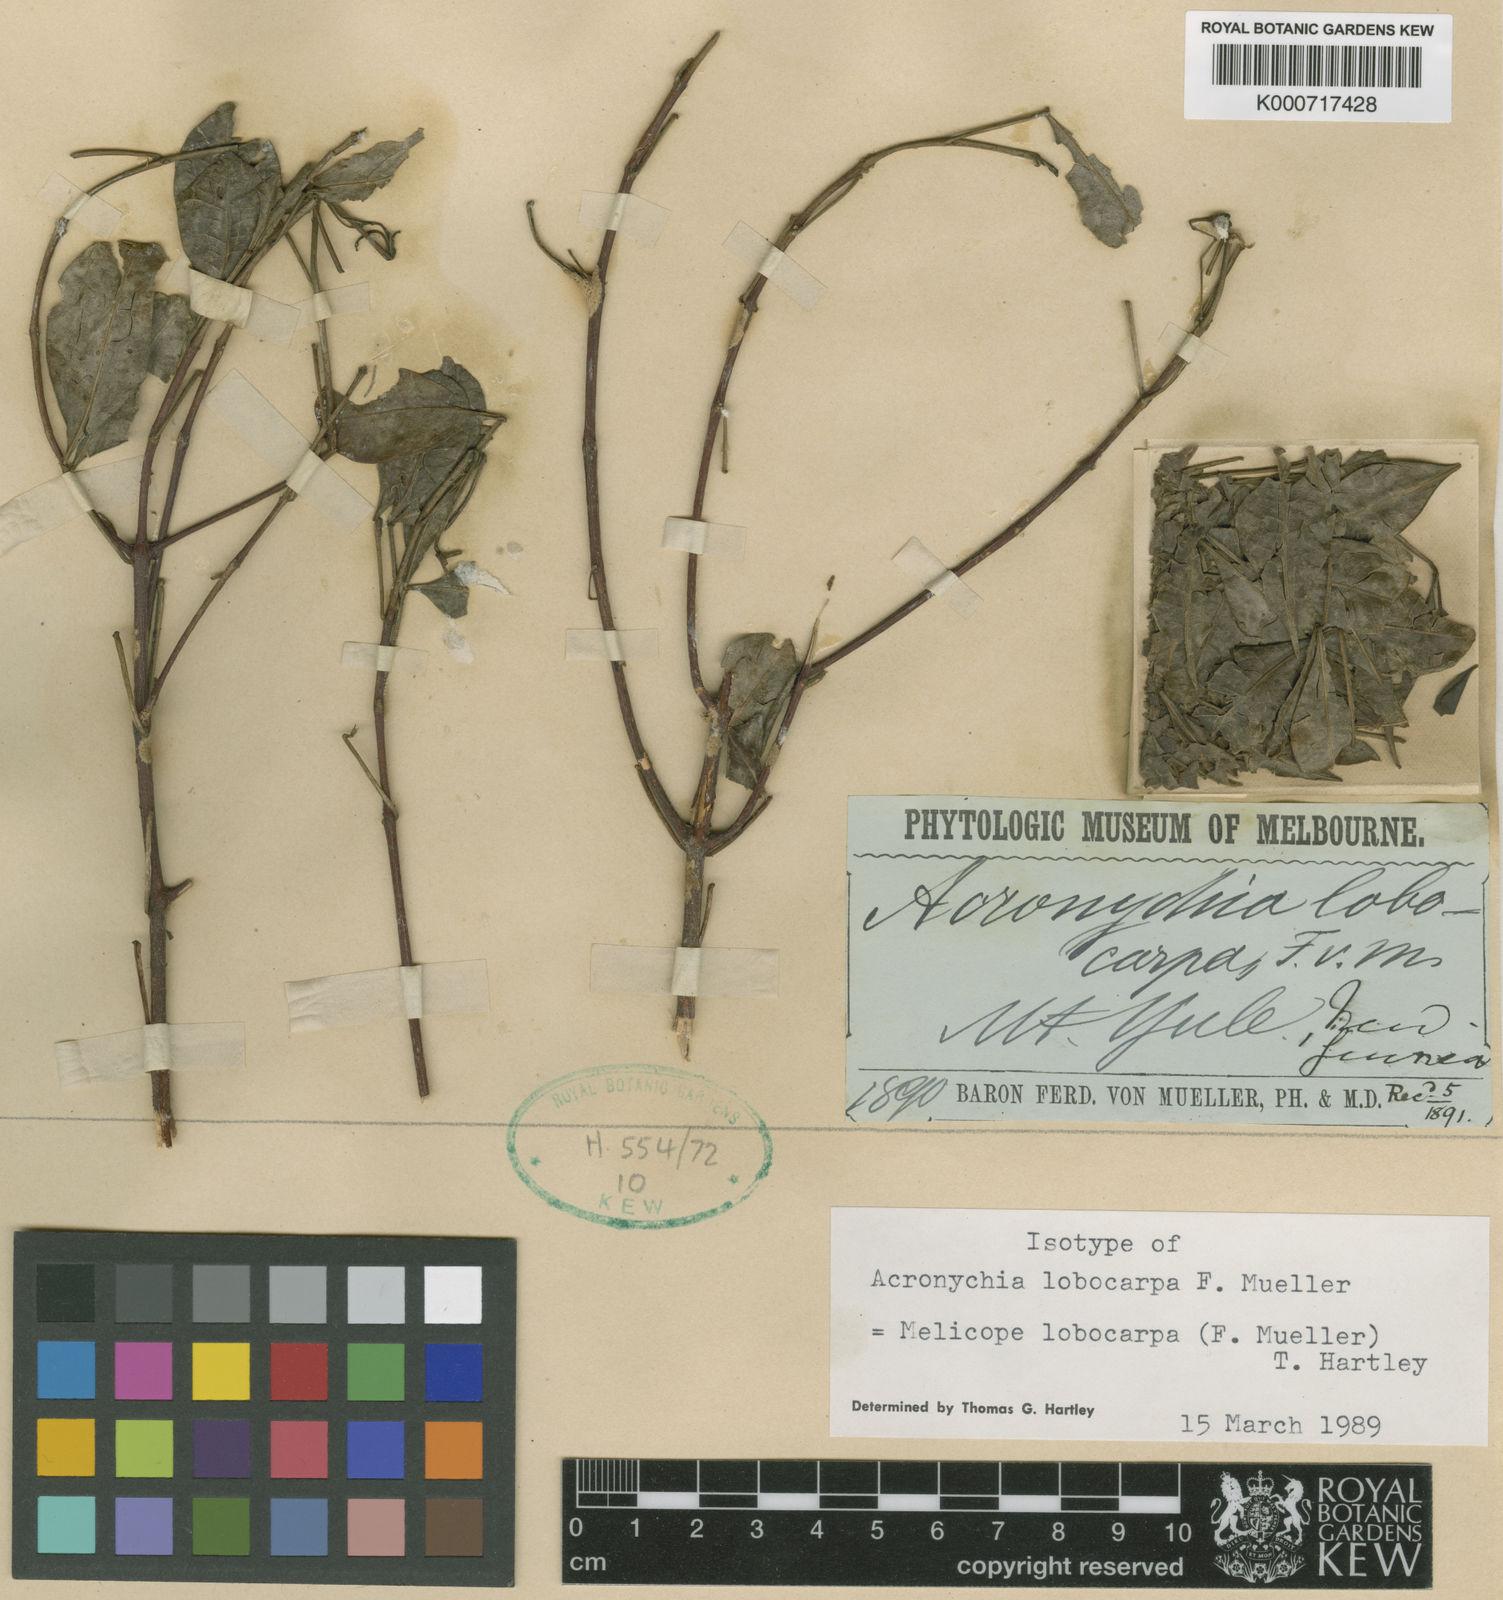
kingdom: Plantae
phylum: Tracheophyta
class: Magnoliopsida
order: Sapindales
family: Rutaceae
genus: Melicope
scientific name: Melicope lobocarpa
